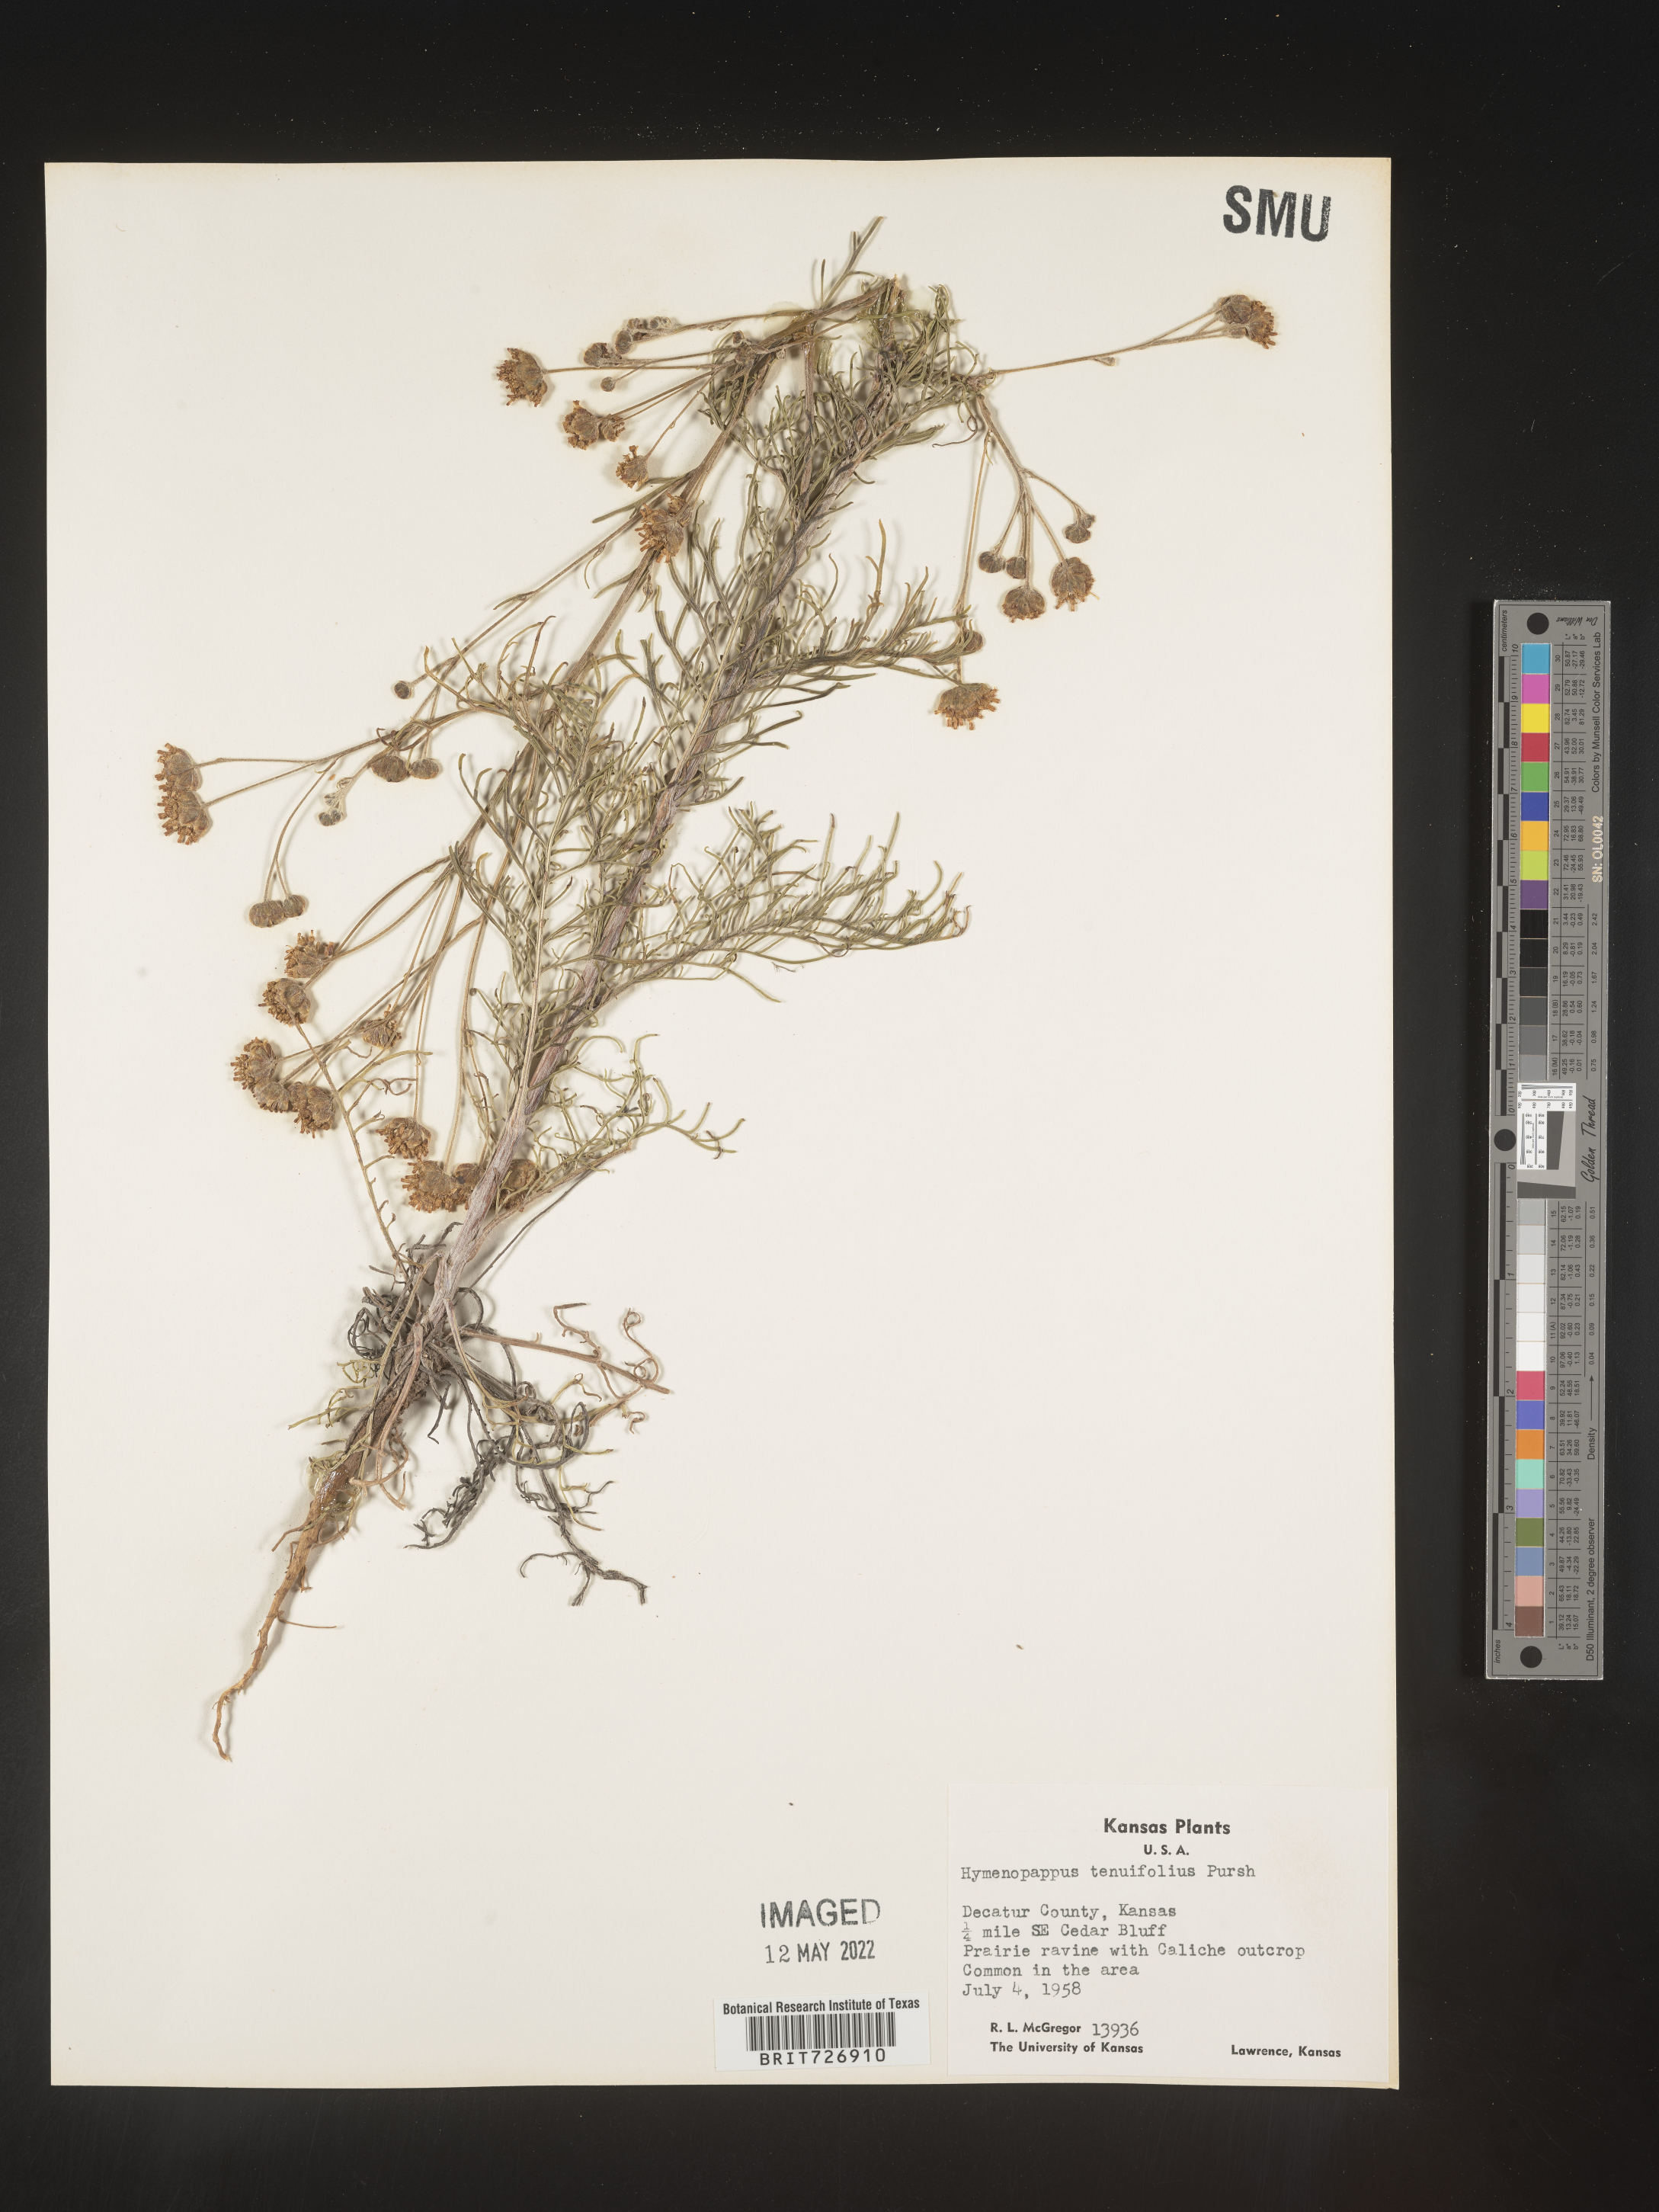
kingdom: Plantae
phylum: Tracheophyta
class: Magnoliopsida
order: Asterales
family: Asteraceae
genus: Hymenopappus
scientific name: Hymenopappus tenuifolius
